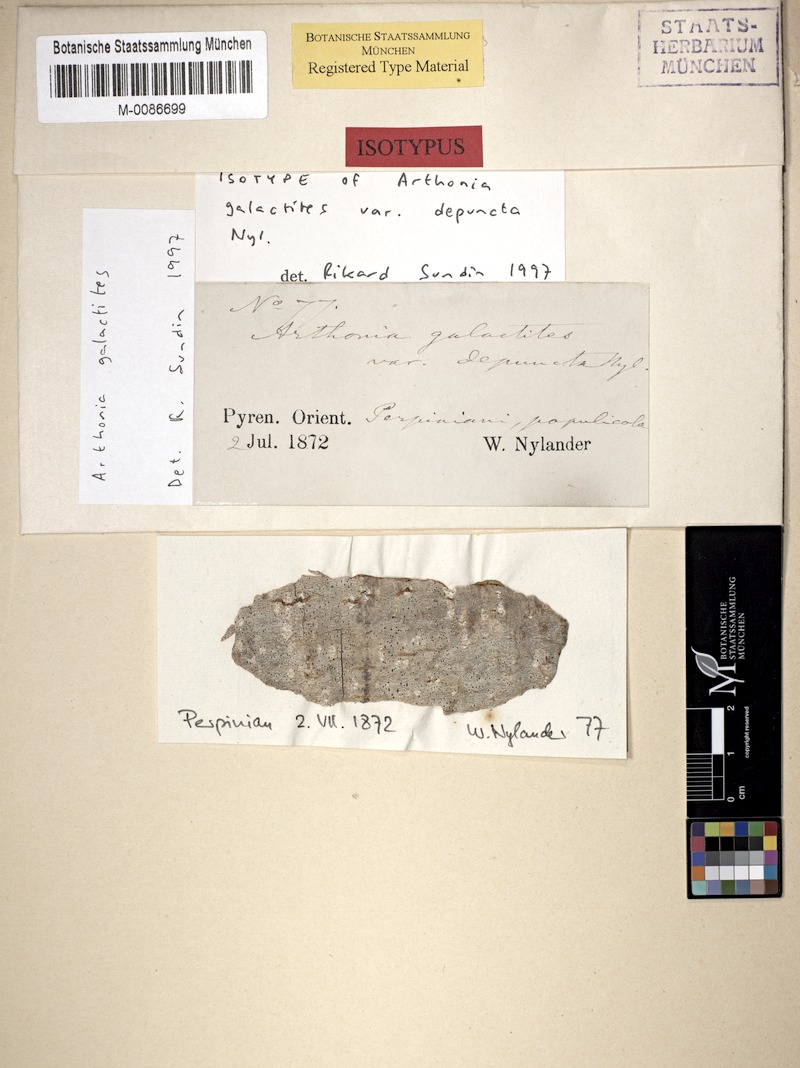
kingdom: Fungi
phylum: Ascomycota
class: Arthoniomycetes
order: Arthoniales
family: Arthoniaceae
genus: Arthonia
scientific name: Arthonia galactites
